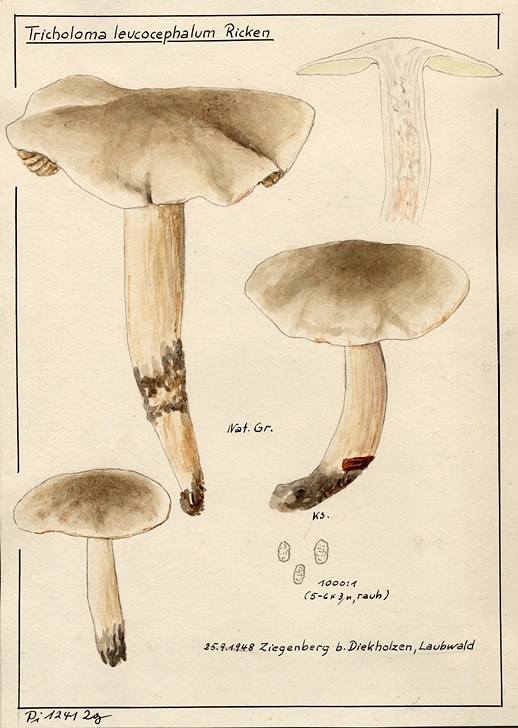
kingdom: Fungi
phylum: Basidiomycota
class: Agaricomycetes
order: Agaricales
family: Lyophyllaceae
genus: Tricholomella
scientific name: Tricholomella constricta
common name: Mealy domecap
